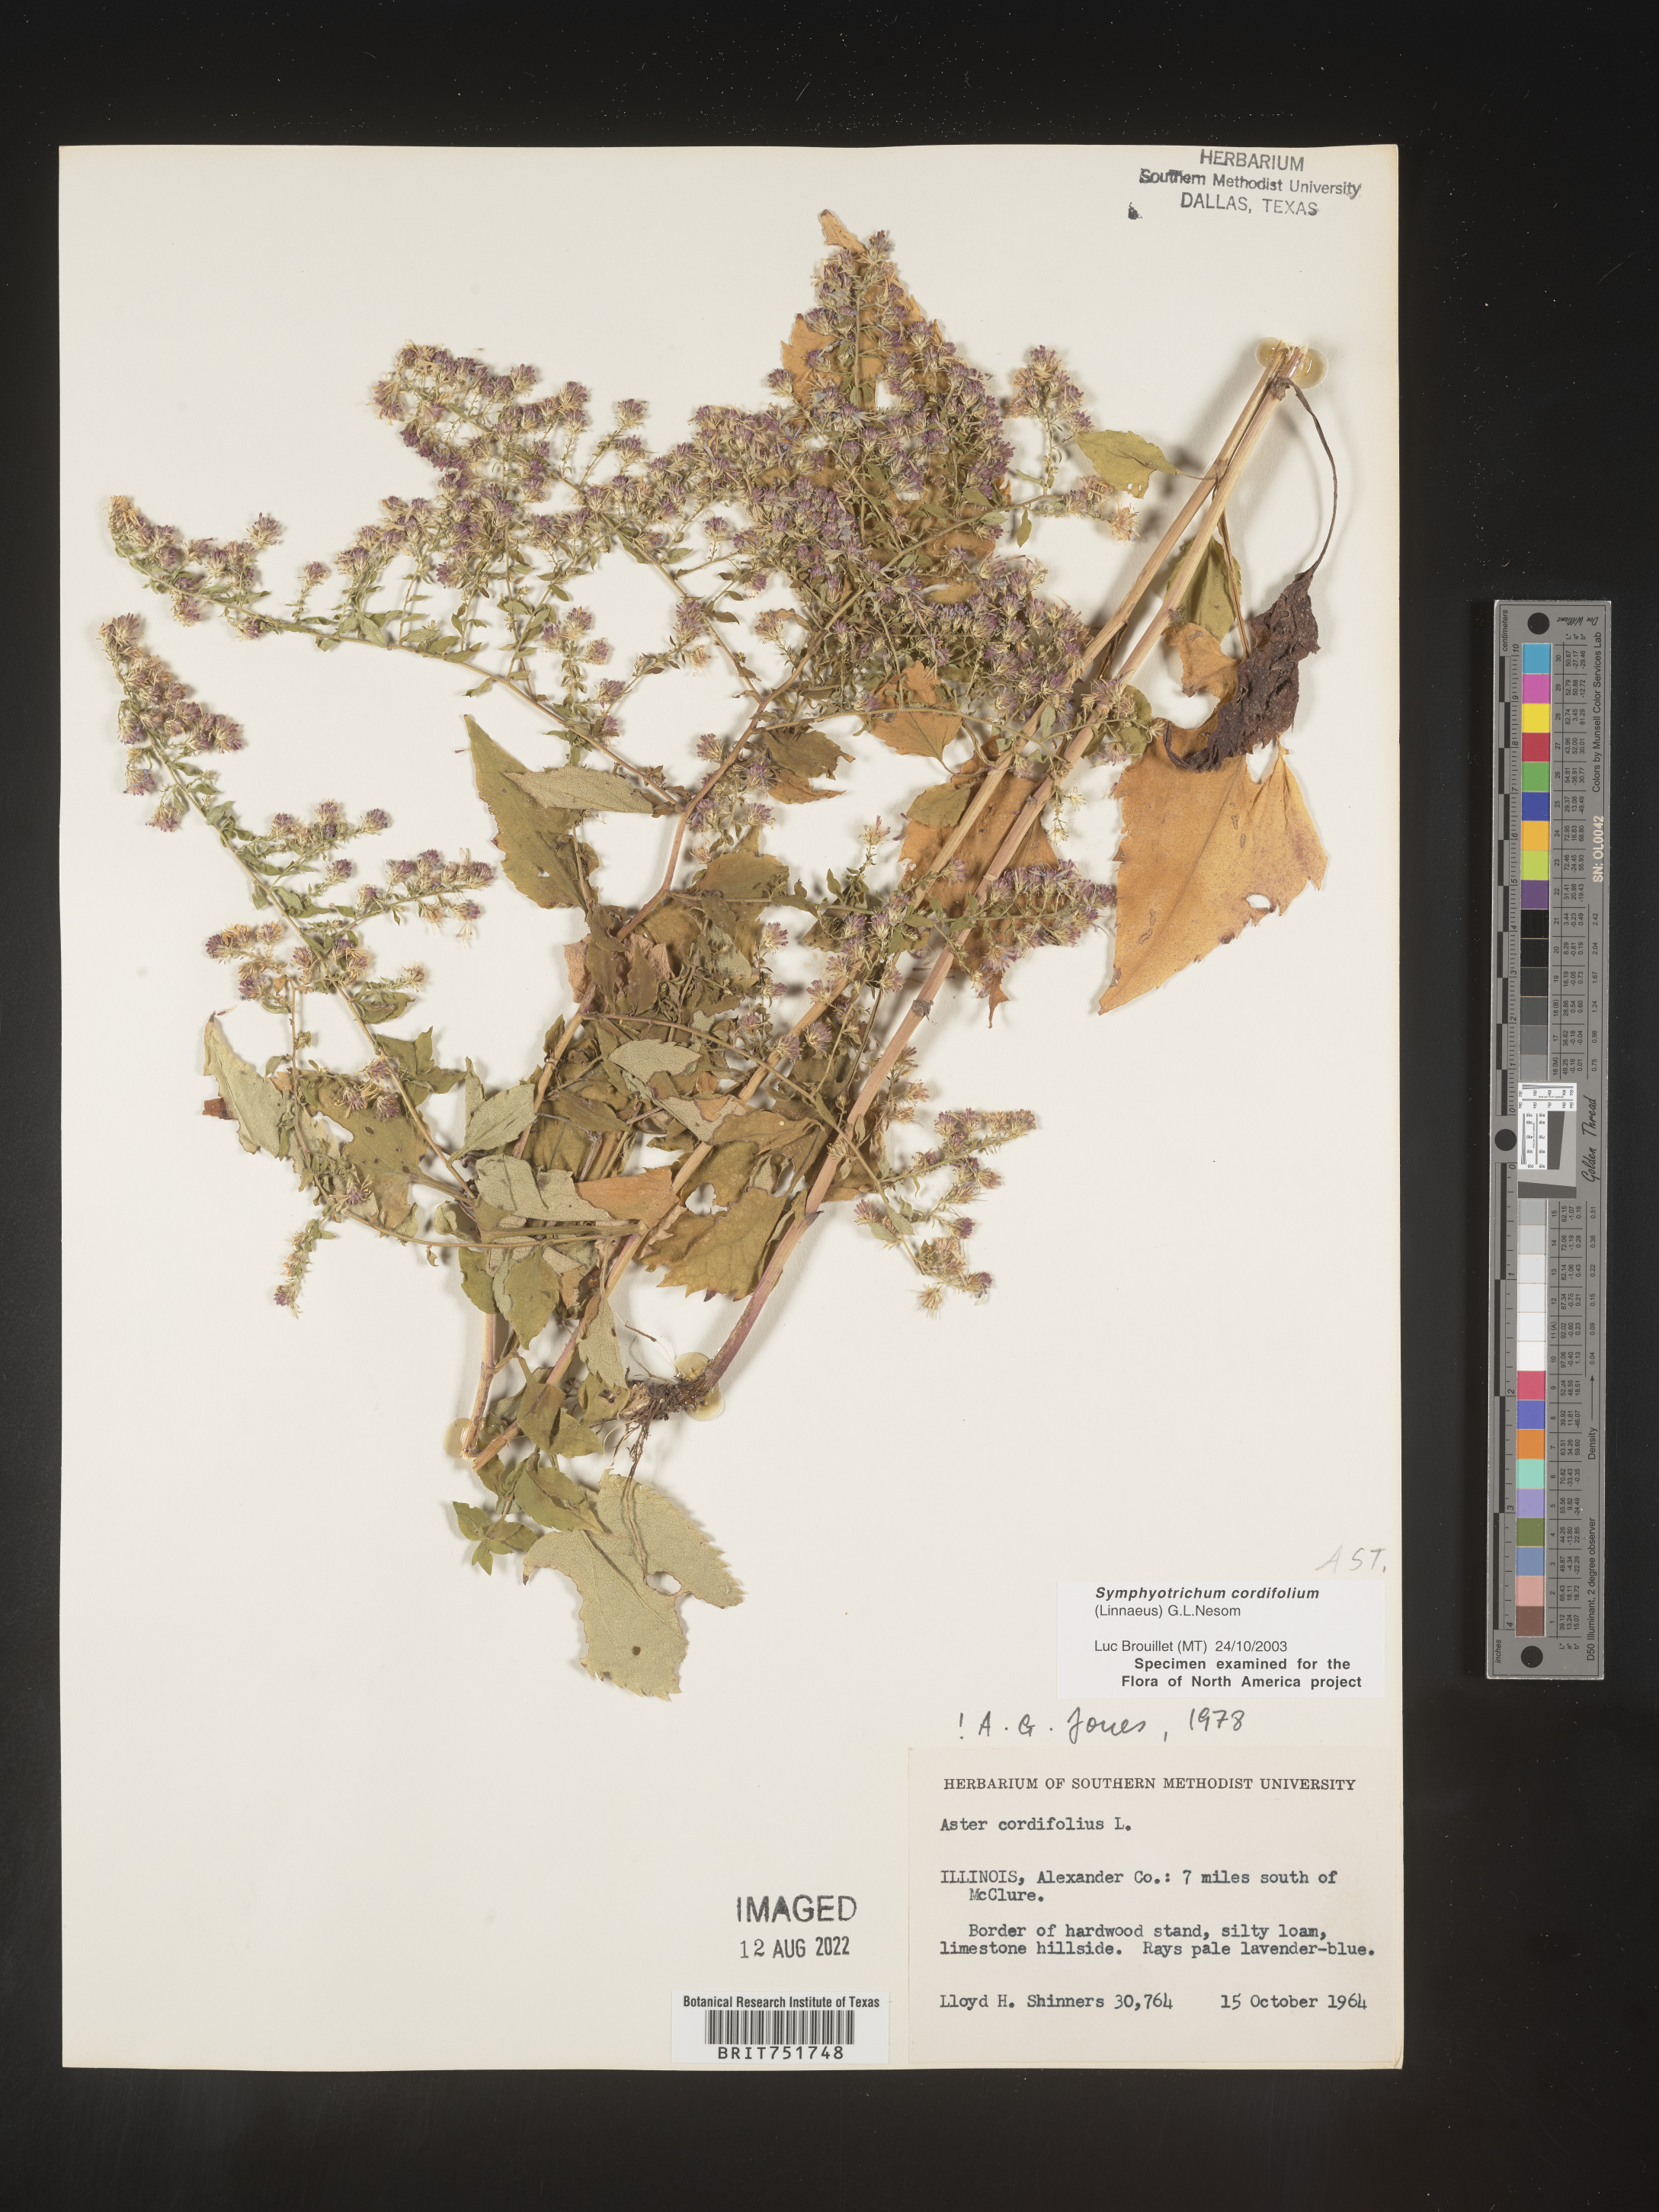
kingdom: Plantae
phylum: Tracheophyta
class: Magnoliopsida
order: Asterales
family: Asteraceae
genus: Symphyotrichum
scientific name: Symphyotrichum cordifolium
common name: Beeweed
